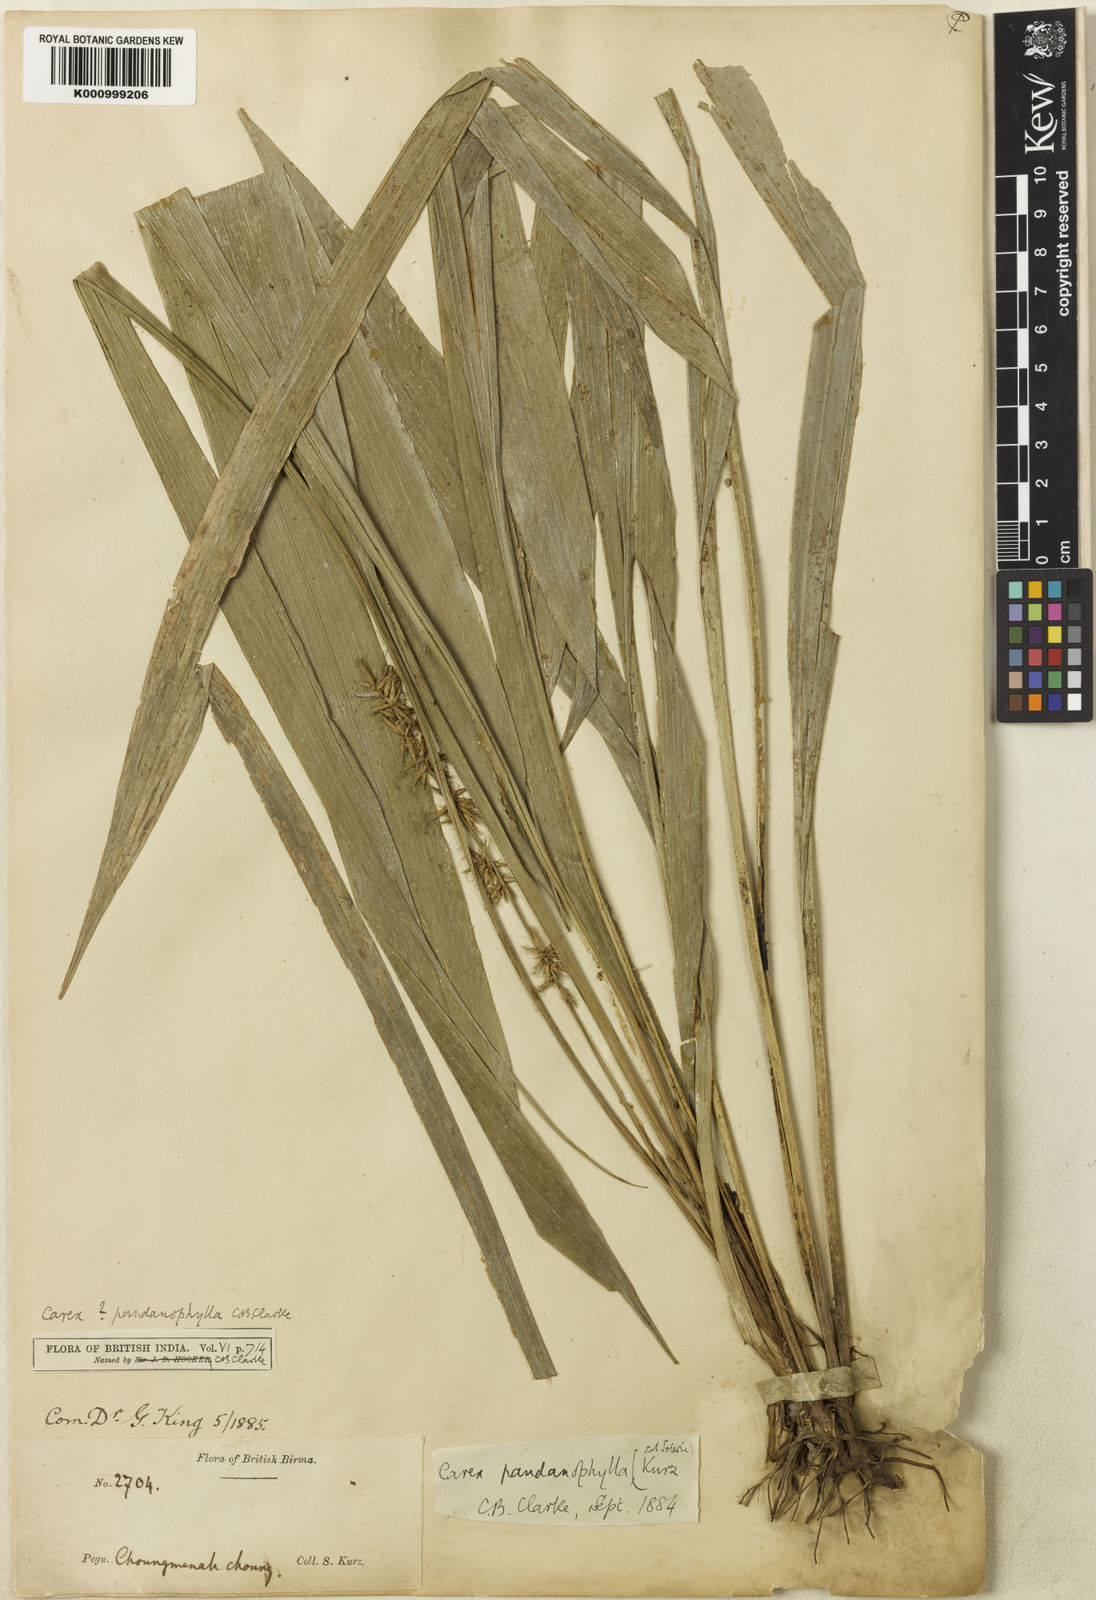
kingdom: Plantae
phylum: Tracheophyta
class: Liliopsida
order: Poales
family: Cyperaceae
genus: Carex
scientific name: Carex pandanophylla
